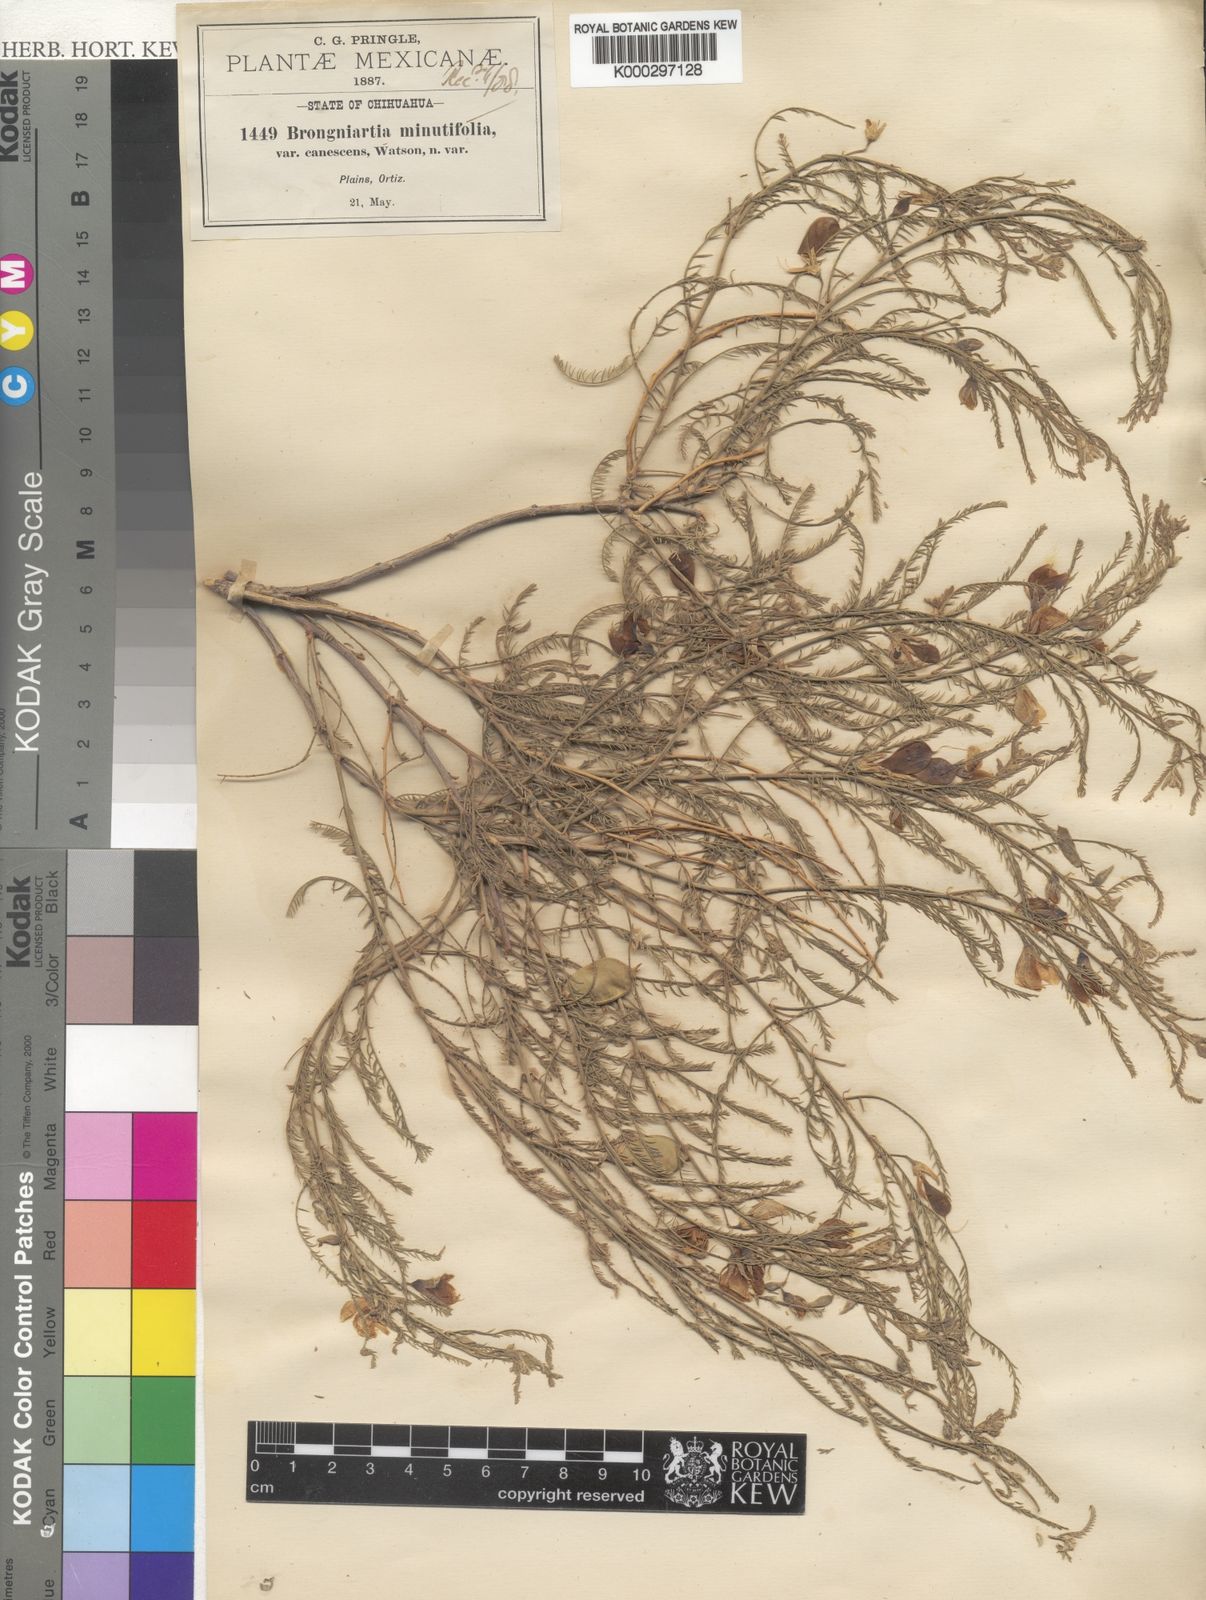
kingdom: Plantae
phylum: Tracheophyta
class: Magnoliopsida
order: Fabales
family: Fabaceae
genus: Brongniartia
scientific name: Brongniartia canescens
